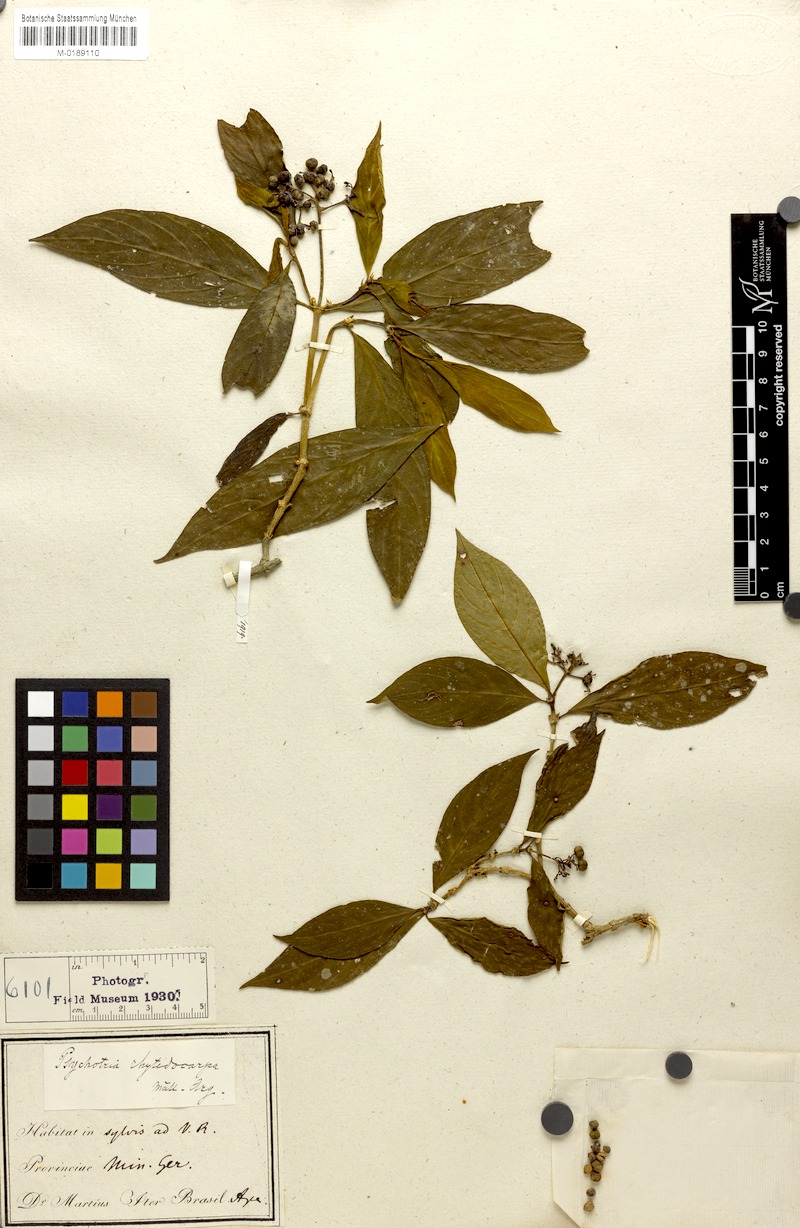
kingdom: Plantae
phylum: Tracheophyta
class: Magnoliopsida
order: Gentianales
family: Rubiaceae
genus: Psychotria
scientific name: Psychotria rhytidocarpa
